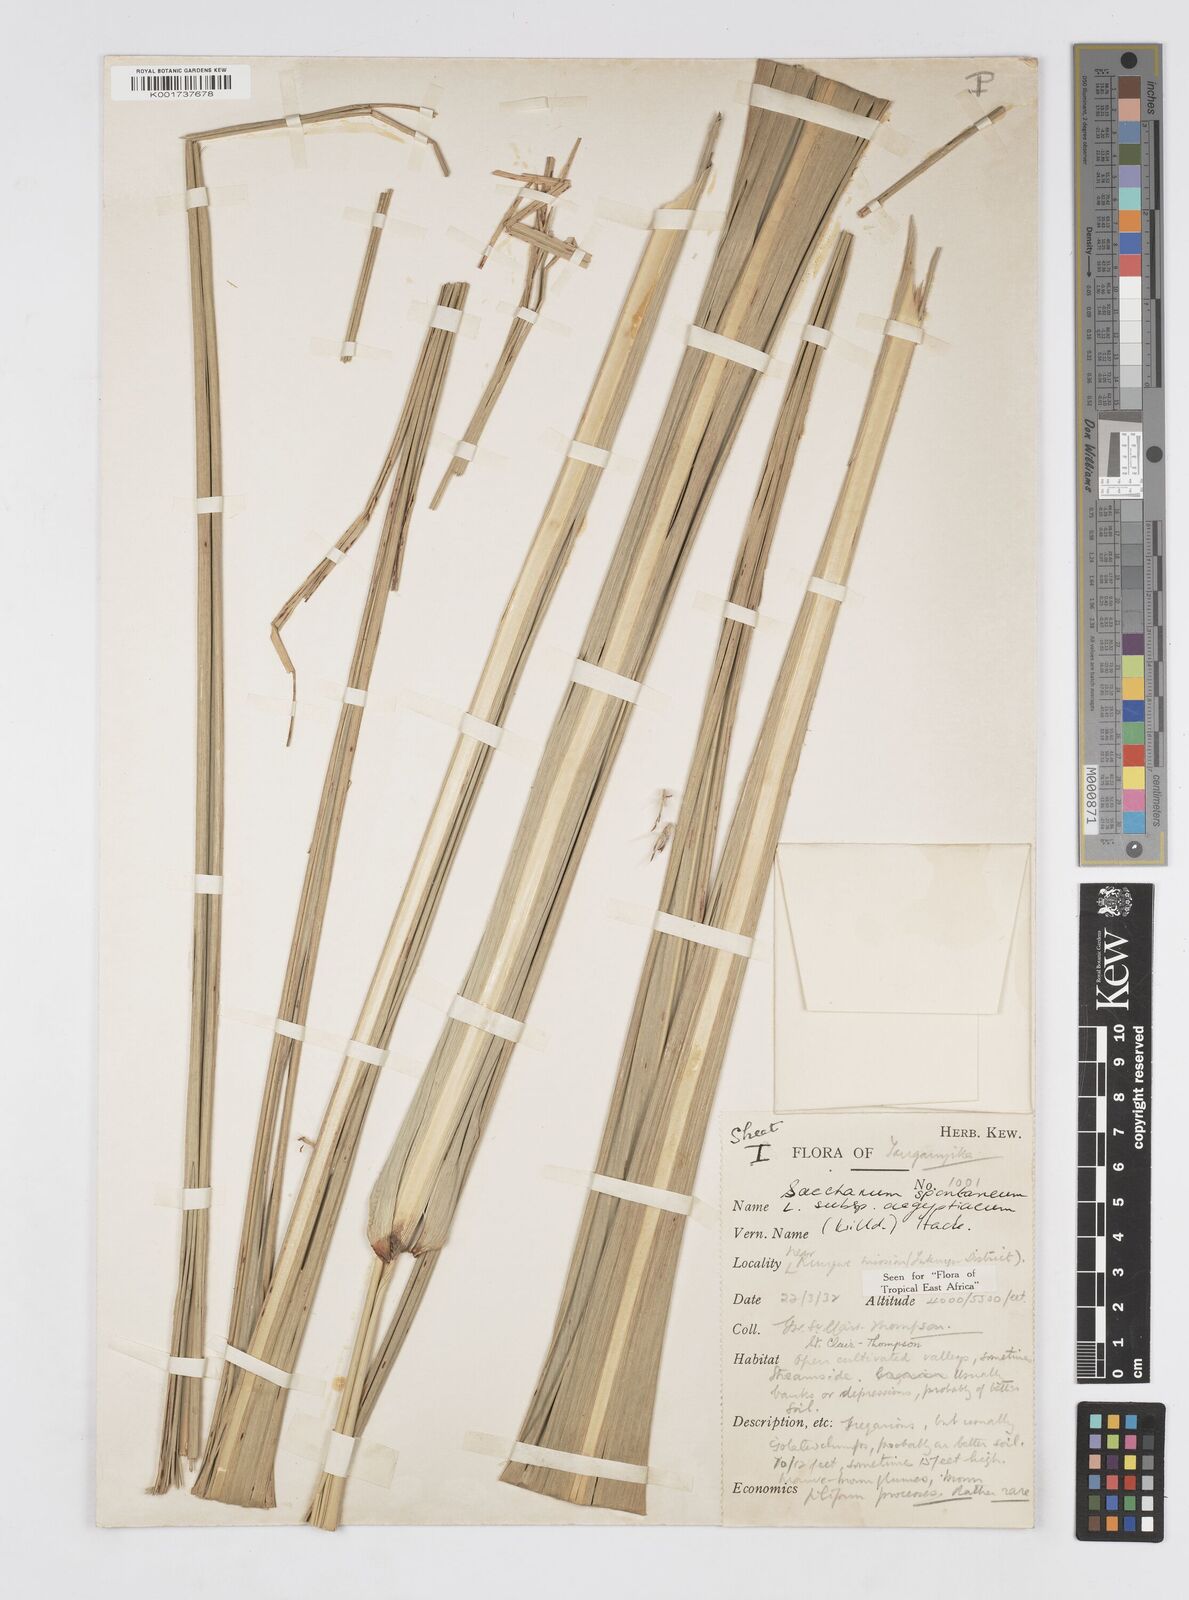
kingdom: Plantae
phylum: Tracheophyta
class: Liliopsida
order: Poales
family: Poaceae
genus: Saccharum
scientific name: Saccharum spontaneum
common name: Wild sugarcane
